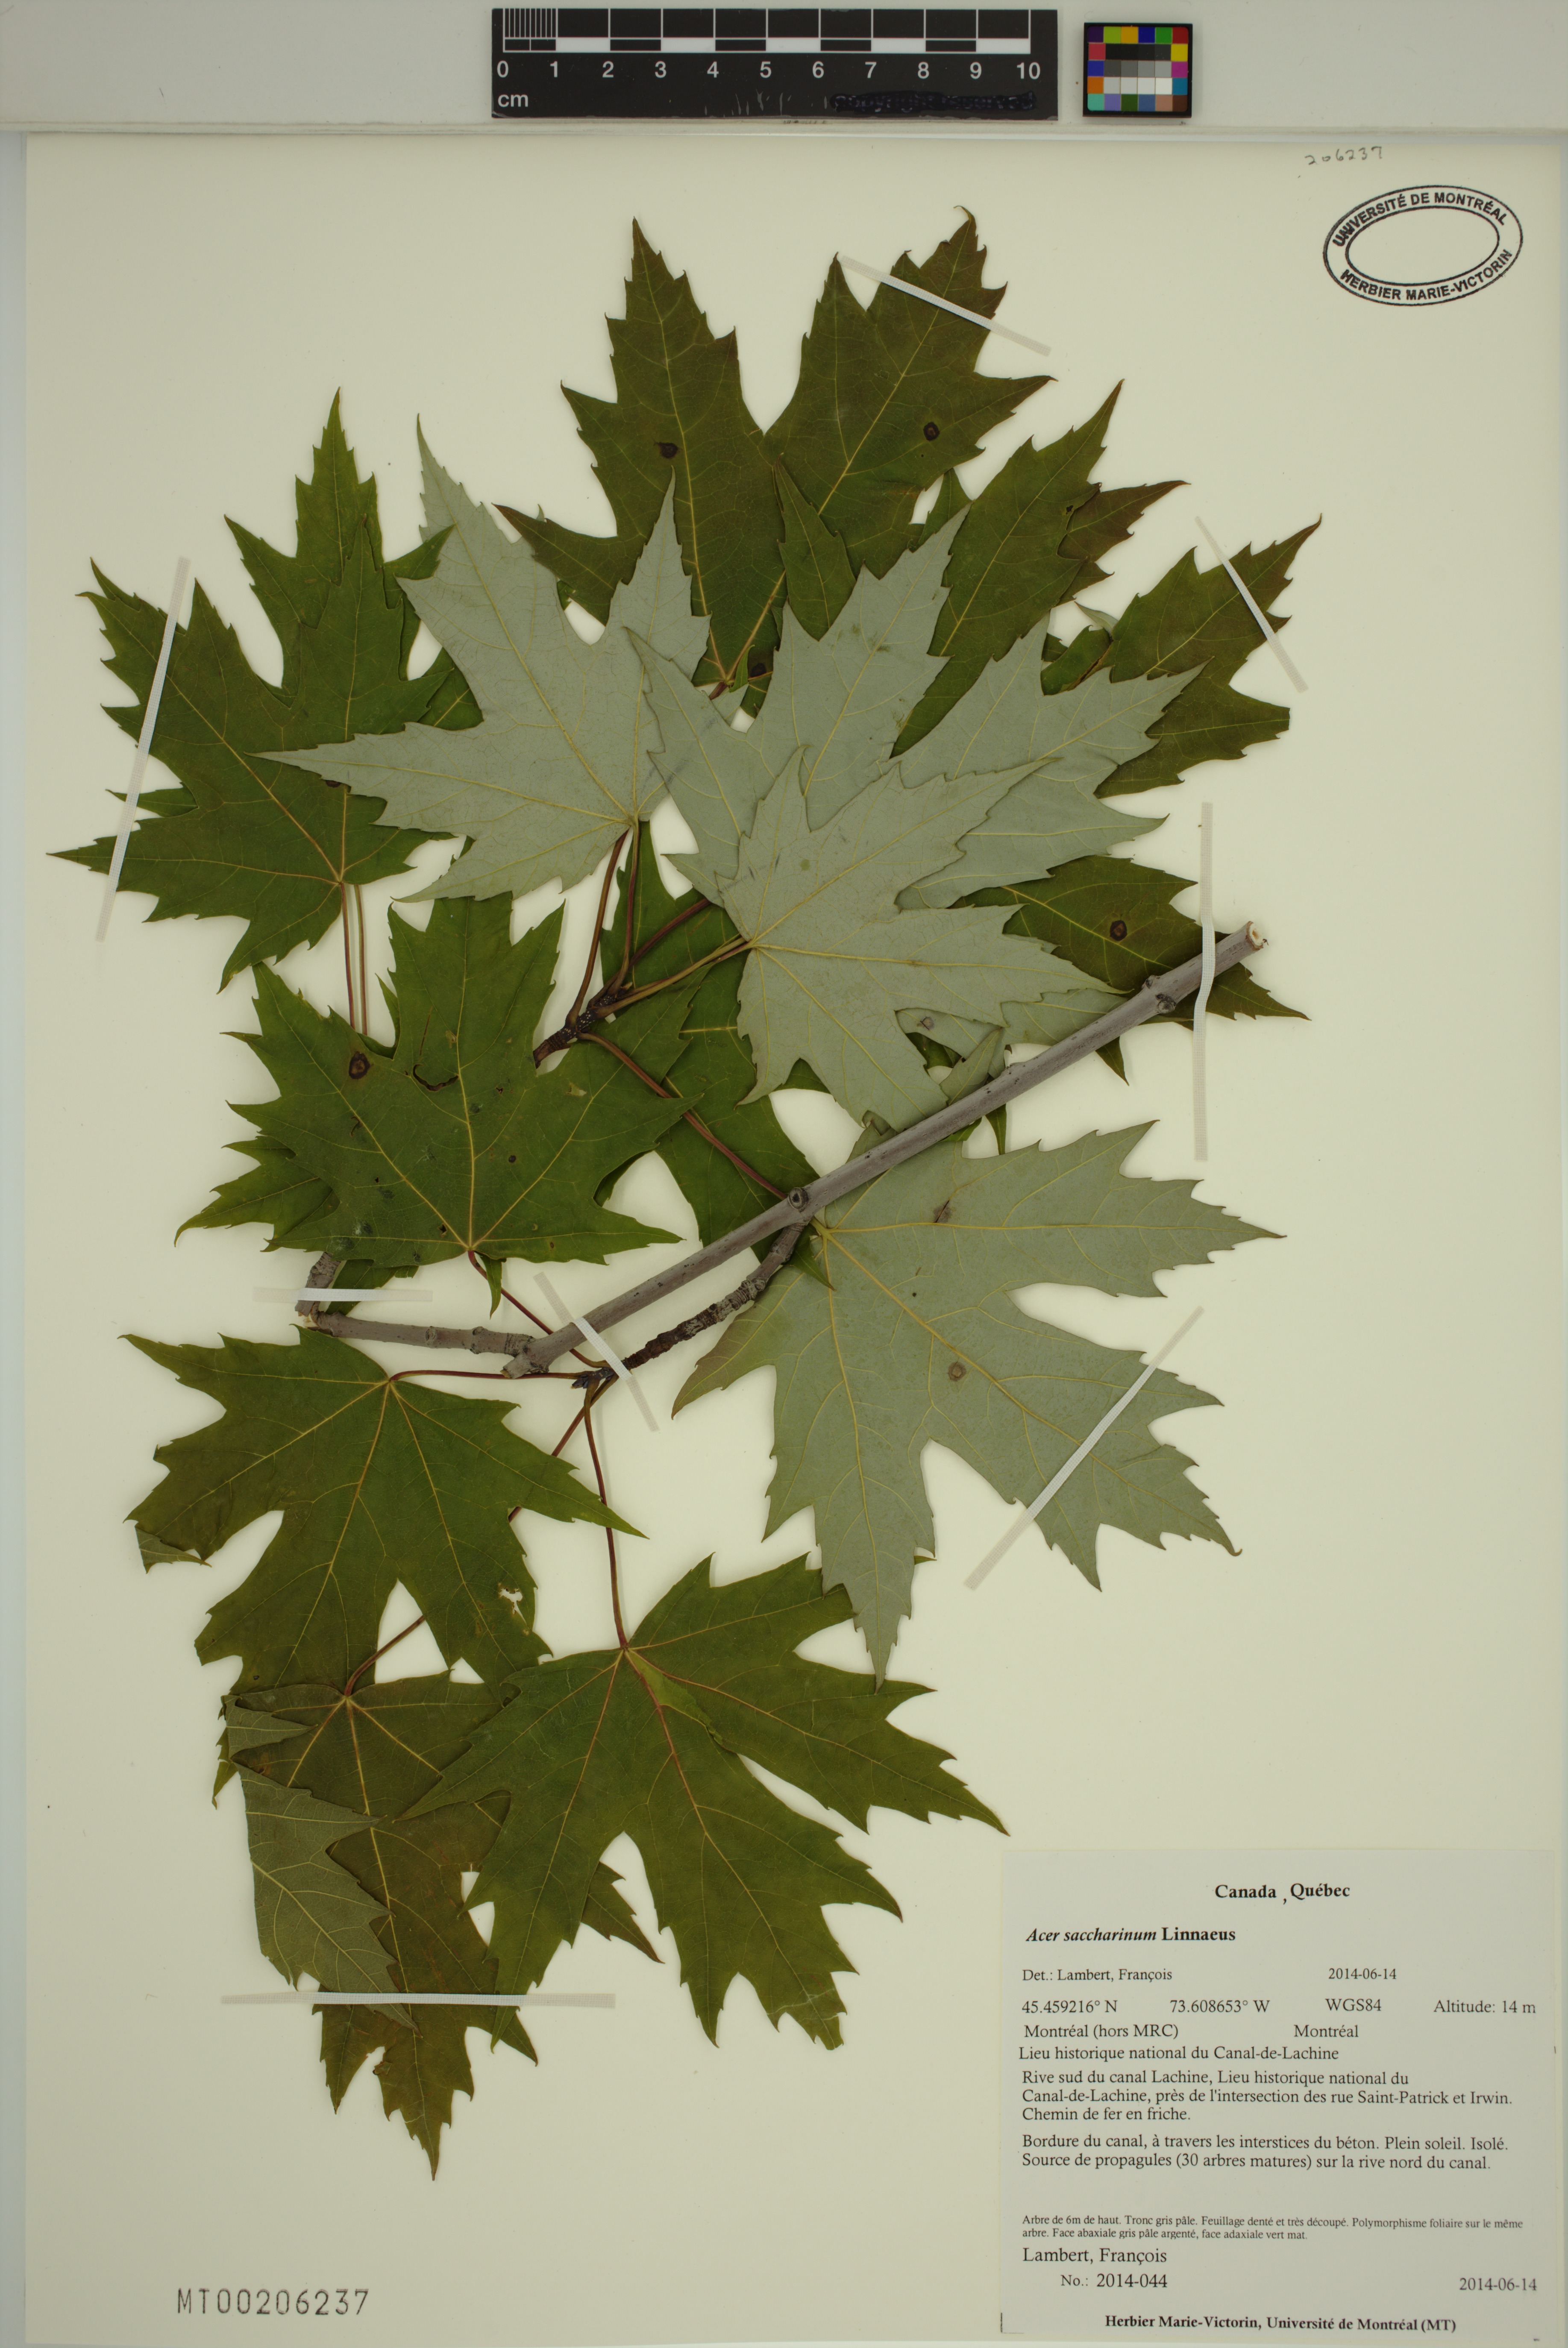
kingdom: Plantae
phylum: Tracheophyta
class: Magnoliopsida
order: Sapindales
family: Sapindaceae
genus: Acer
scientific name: Acer saccharinum
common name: Silver maple
